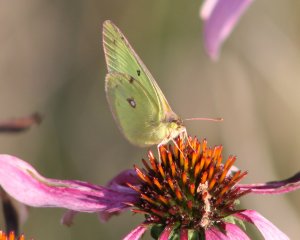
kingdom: Animalia
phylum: Arthropoda
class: Insecta
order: Lepidoptera
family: Pieridae
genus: Colias
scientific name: Colias philodice
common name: Clouded Sulphur
